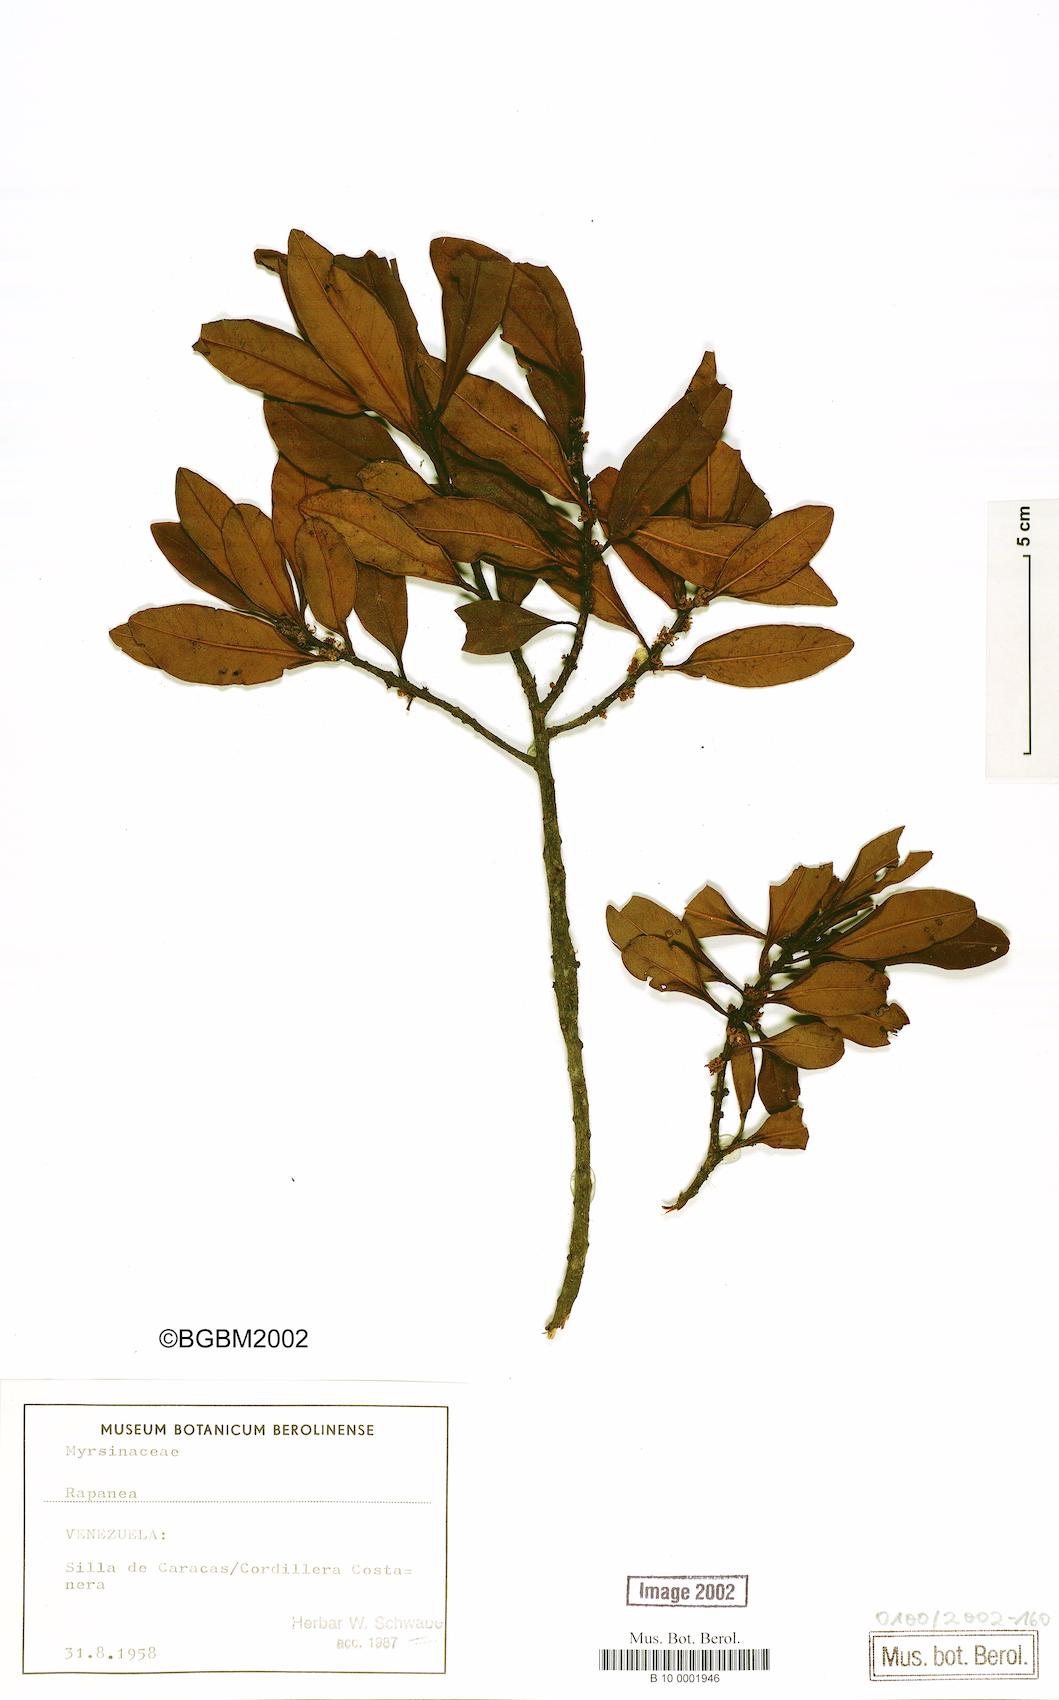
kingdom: Plantae
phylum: Tracheophyta
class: Magnoliopsida
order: Ericales
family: Primulaceae
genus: Myrsine
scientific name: Myrsine
